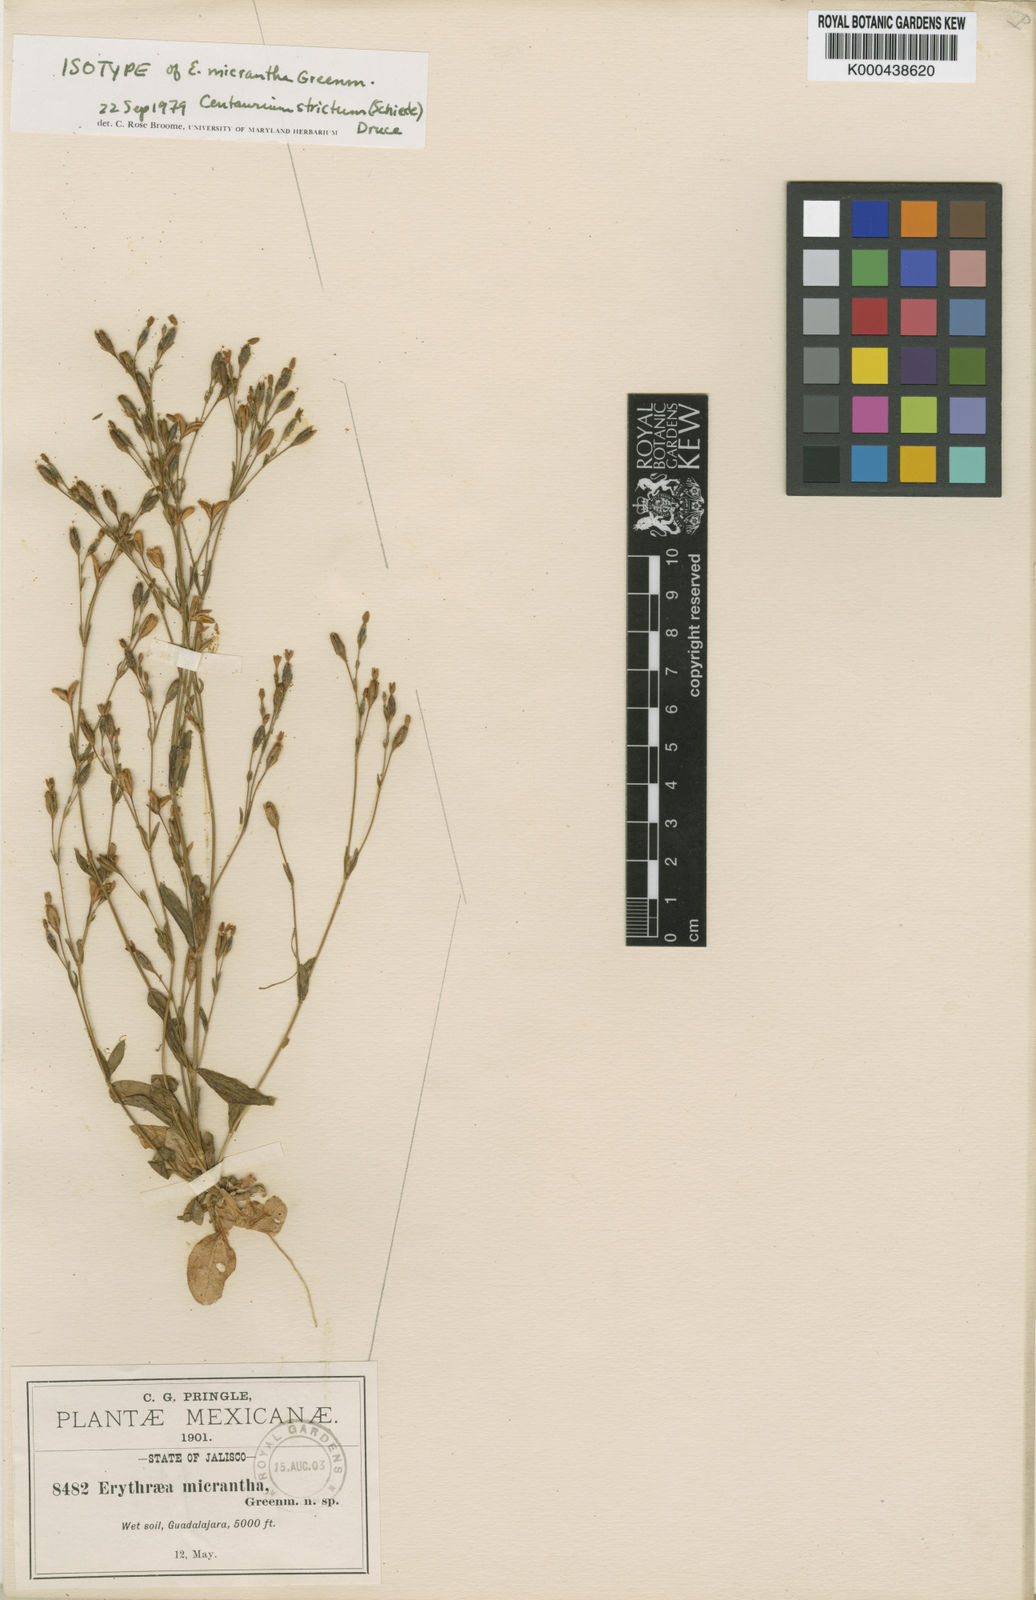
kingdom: Plantae
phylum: Tracheophyta
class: Magnoliopsida
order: Gentianales
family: Gentianaceae
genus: Centaurium
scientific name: Centaurium
